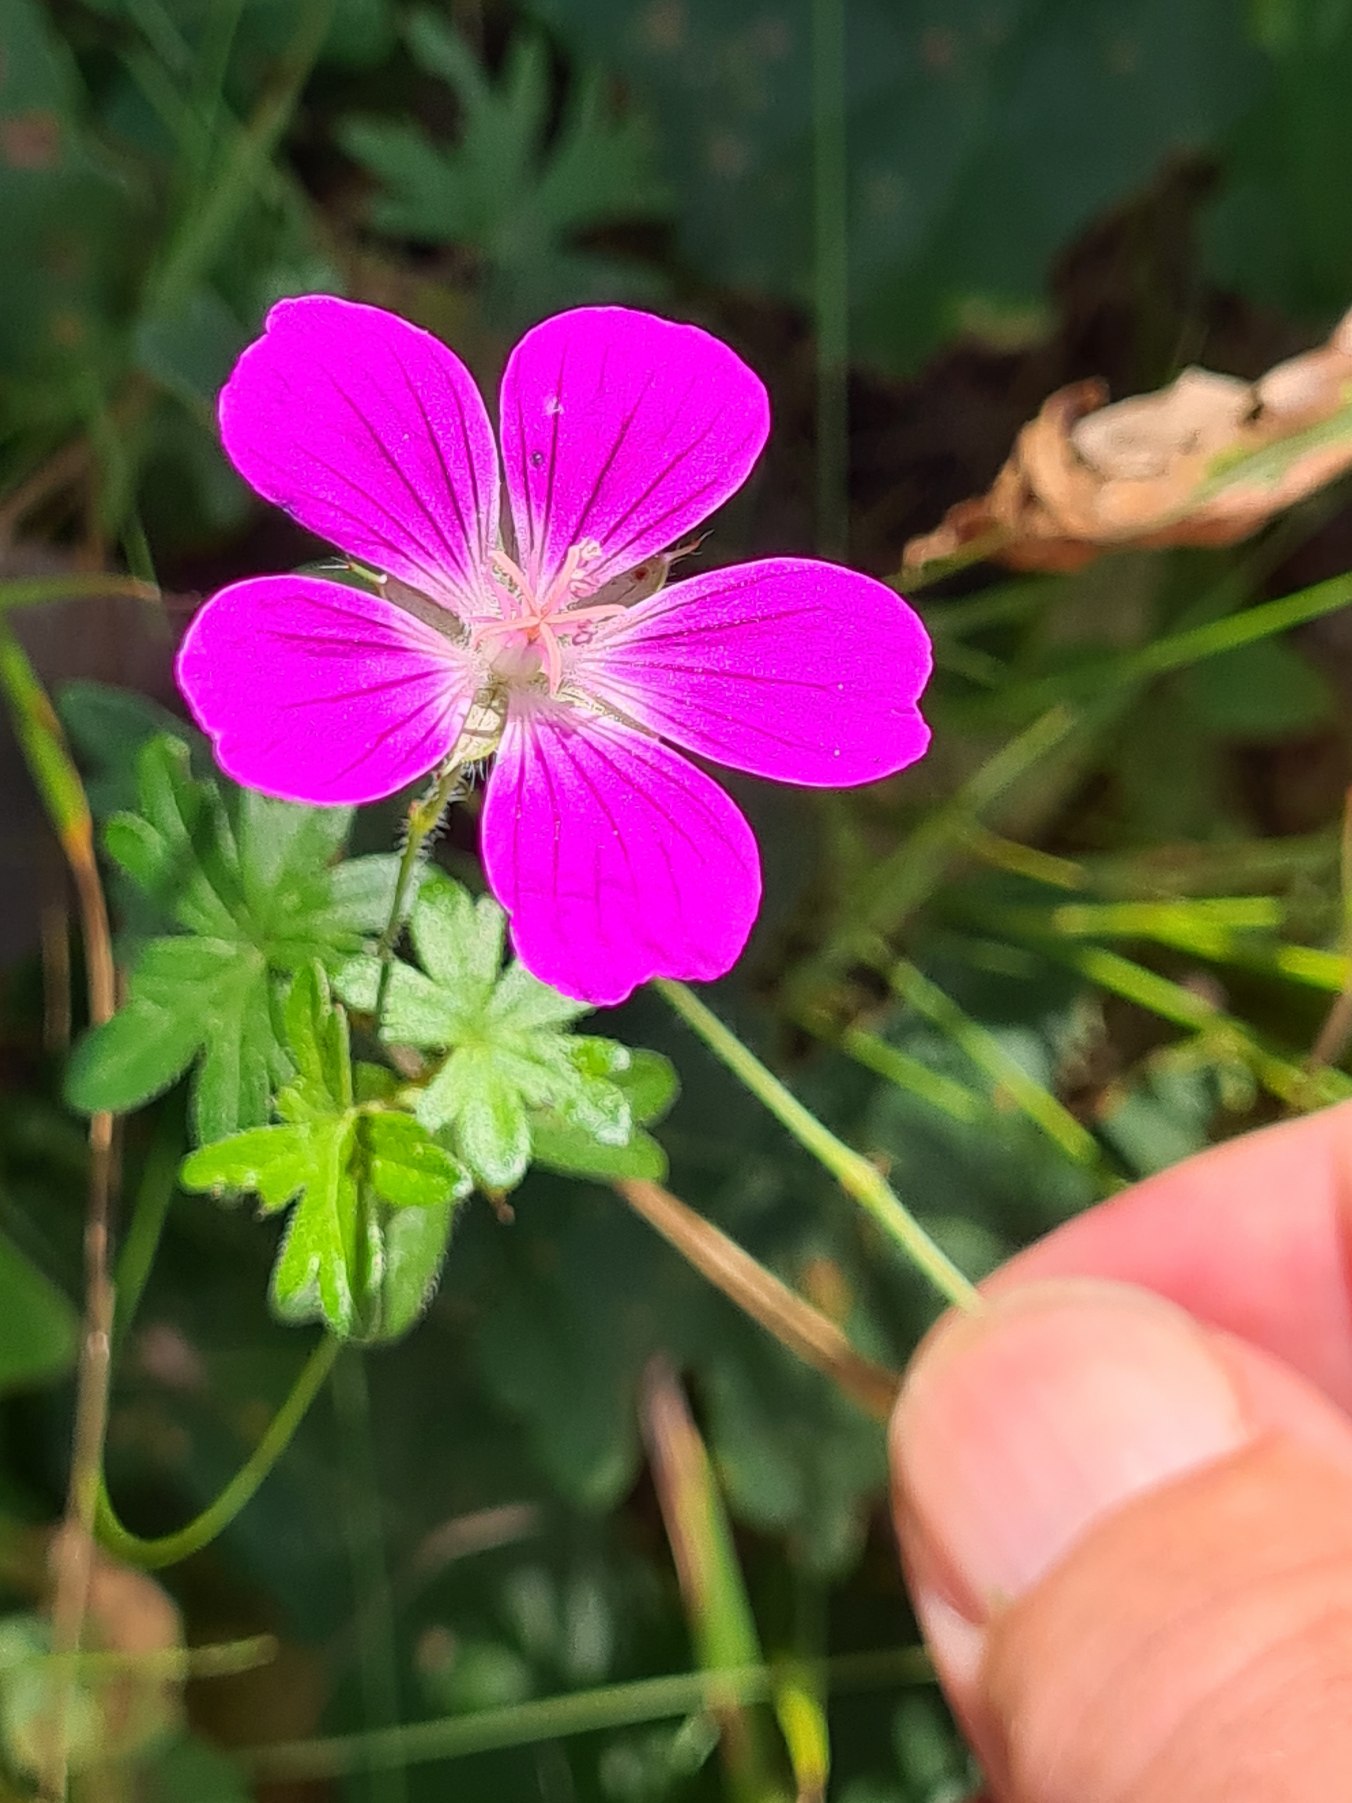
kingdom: Plantae
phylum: Tracheophyta
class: Magnoliopsida
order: Geraniales
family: Geraniaceae
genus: Geranium
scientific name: Geranium sanguineum
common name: Blodrød storkenæb
